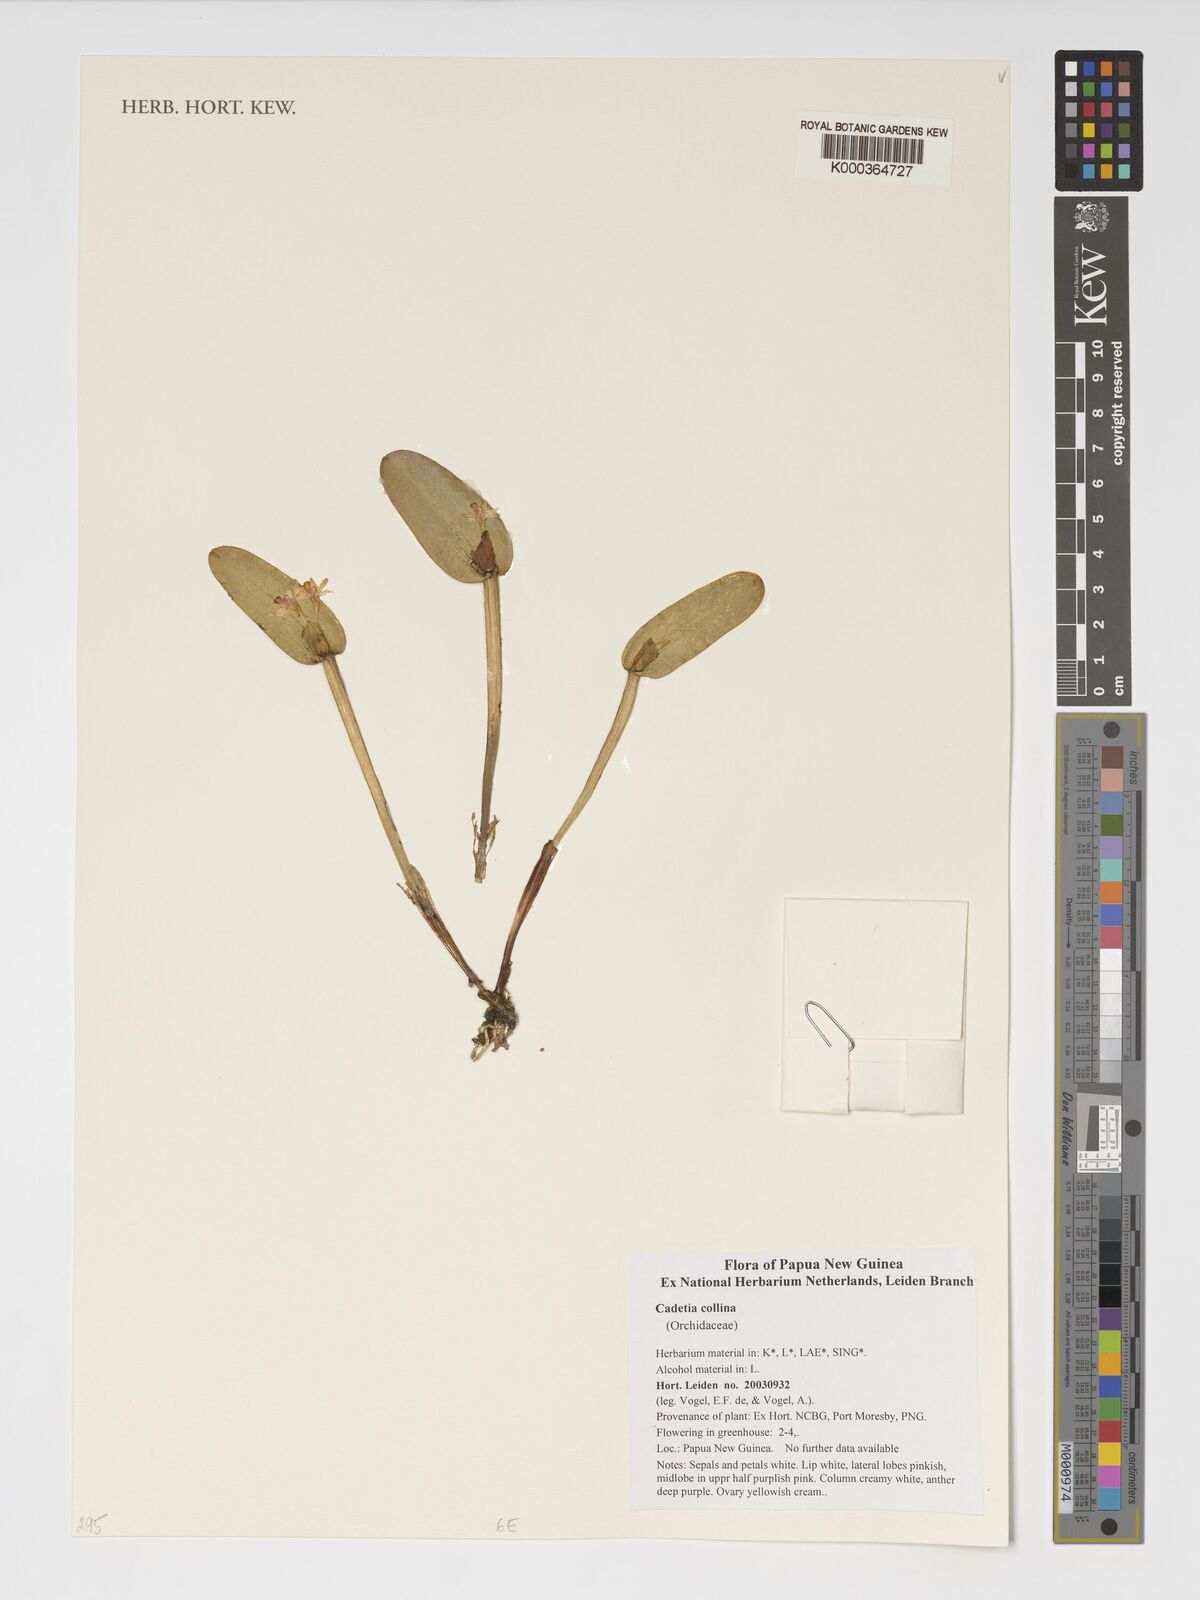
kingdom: Plantae
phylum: Tracheophyta
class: Liliopsida
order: Asparagales
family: Orchidaceae
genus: Dendrobium
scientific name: Dendrobium versteegii
